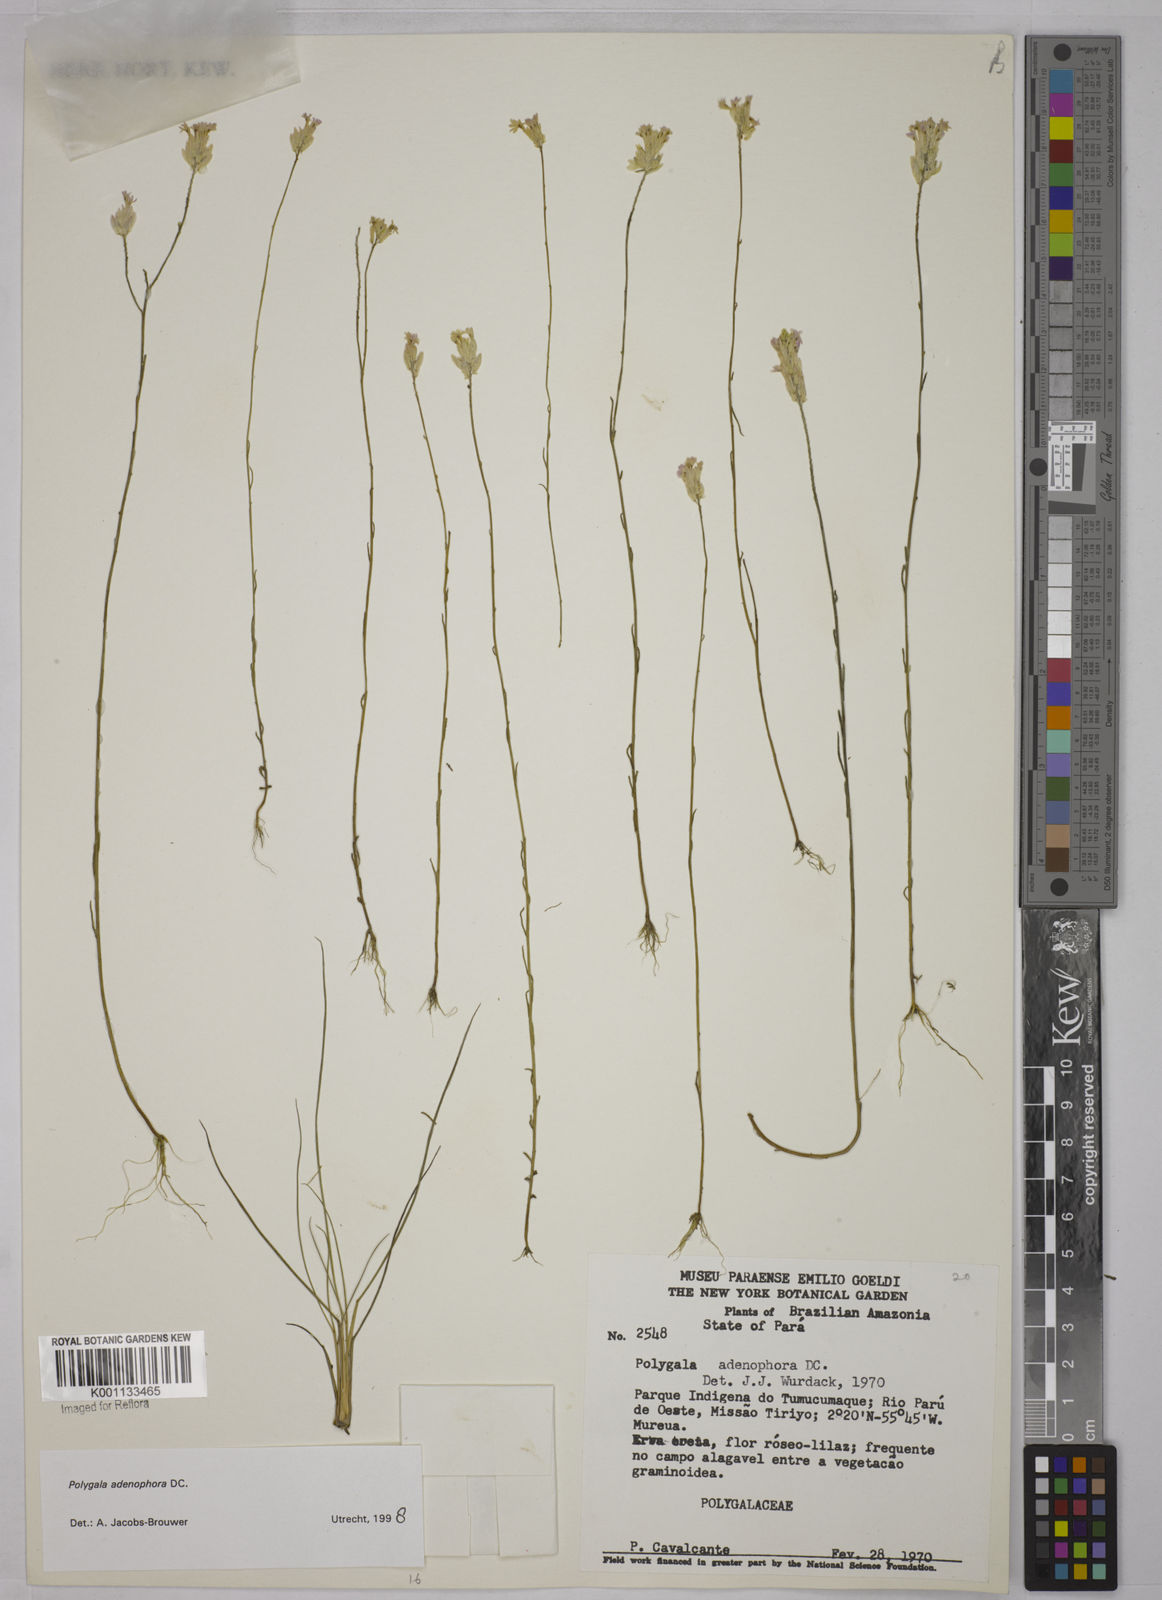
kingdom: Plantae
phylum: Tracheophyta
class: Magnoliopsida
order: Fabales
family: Polygalaceae
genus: Polygala
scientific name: Polygala adenophora
